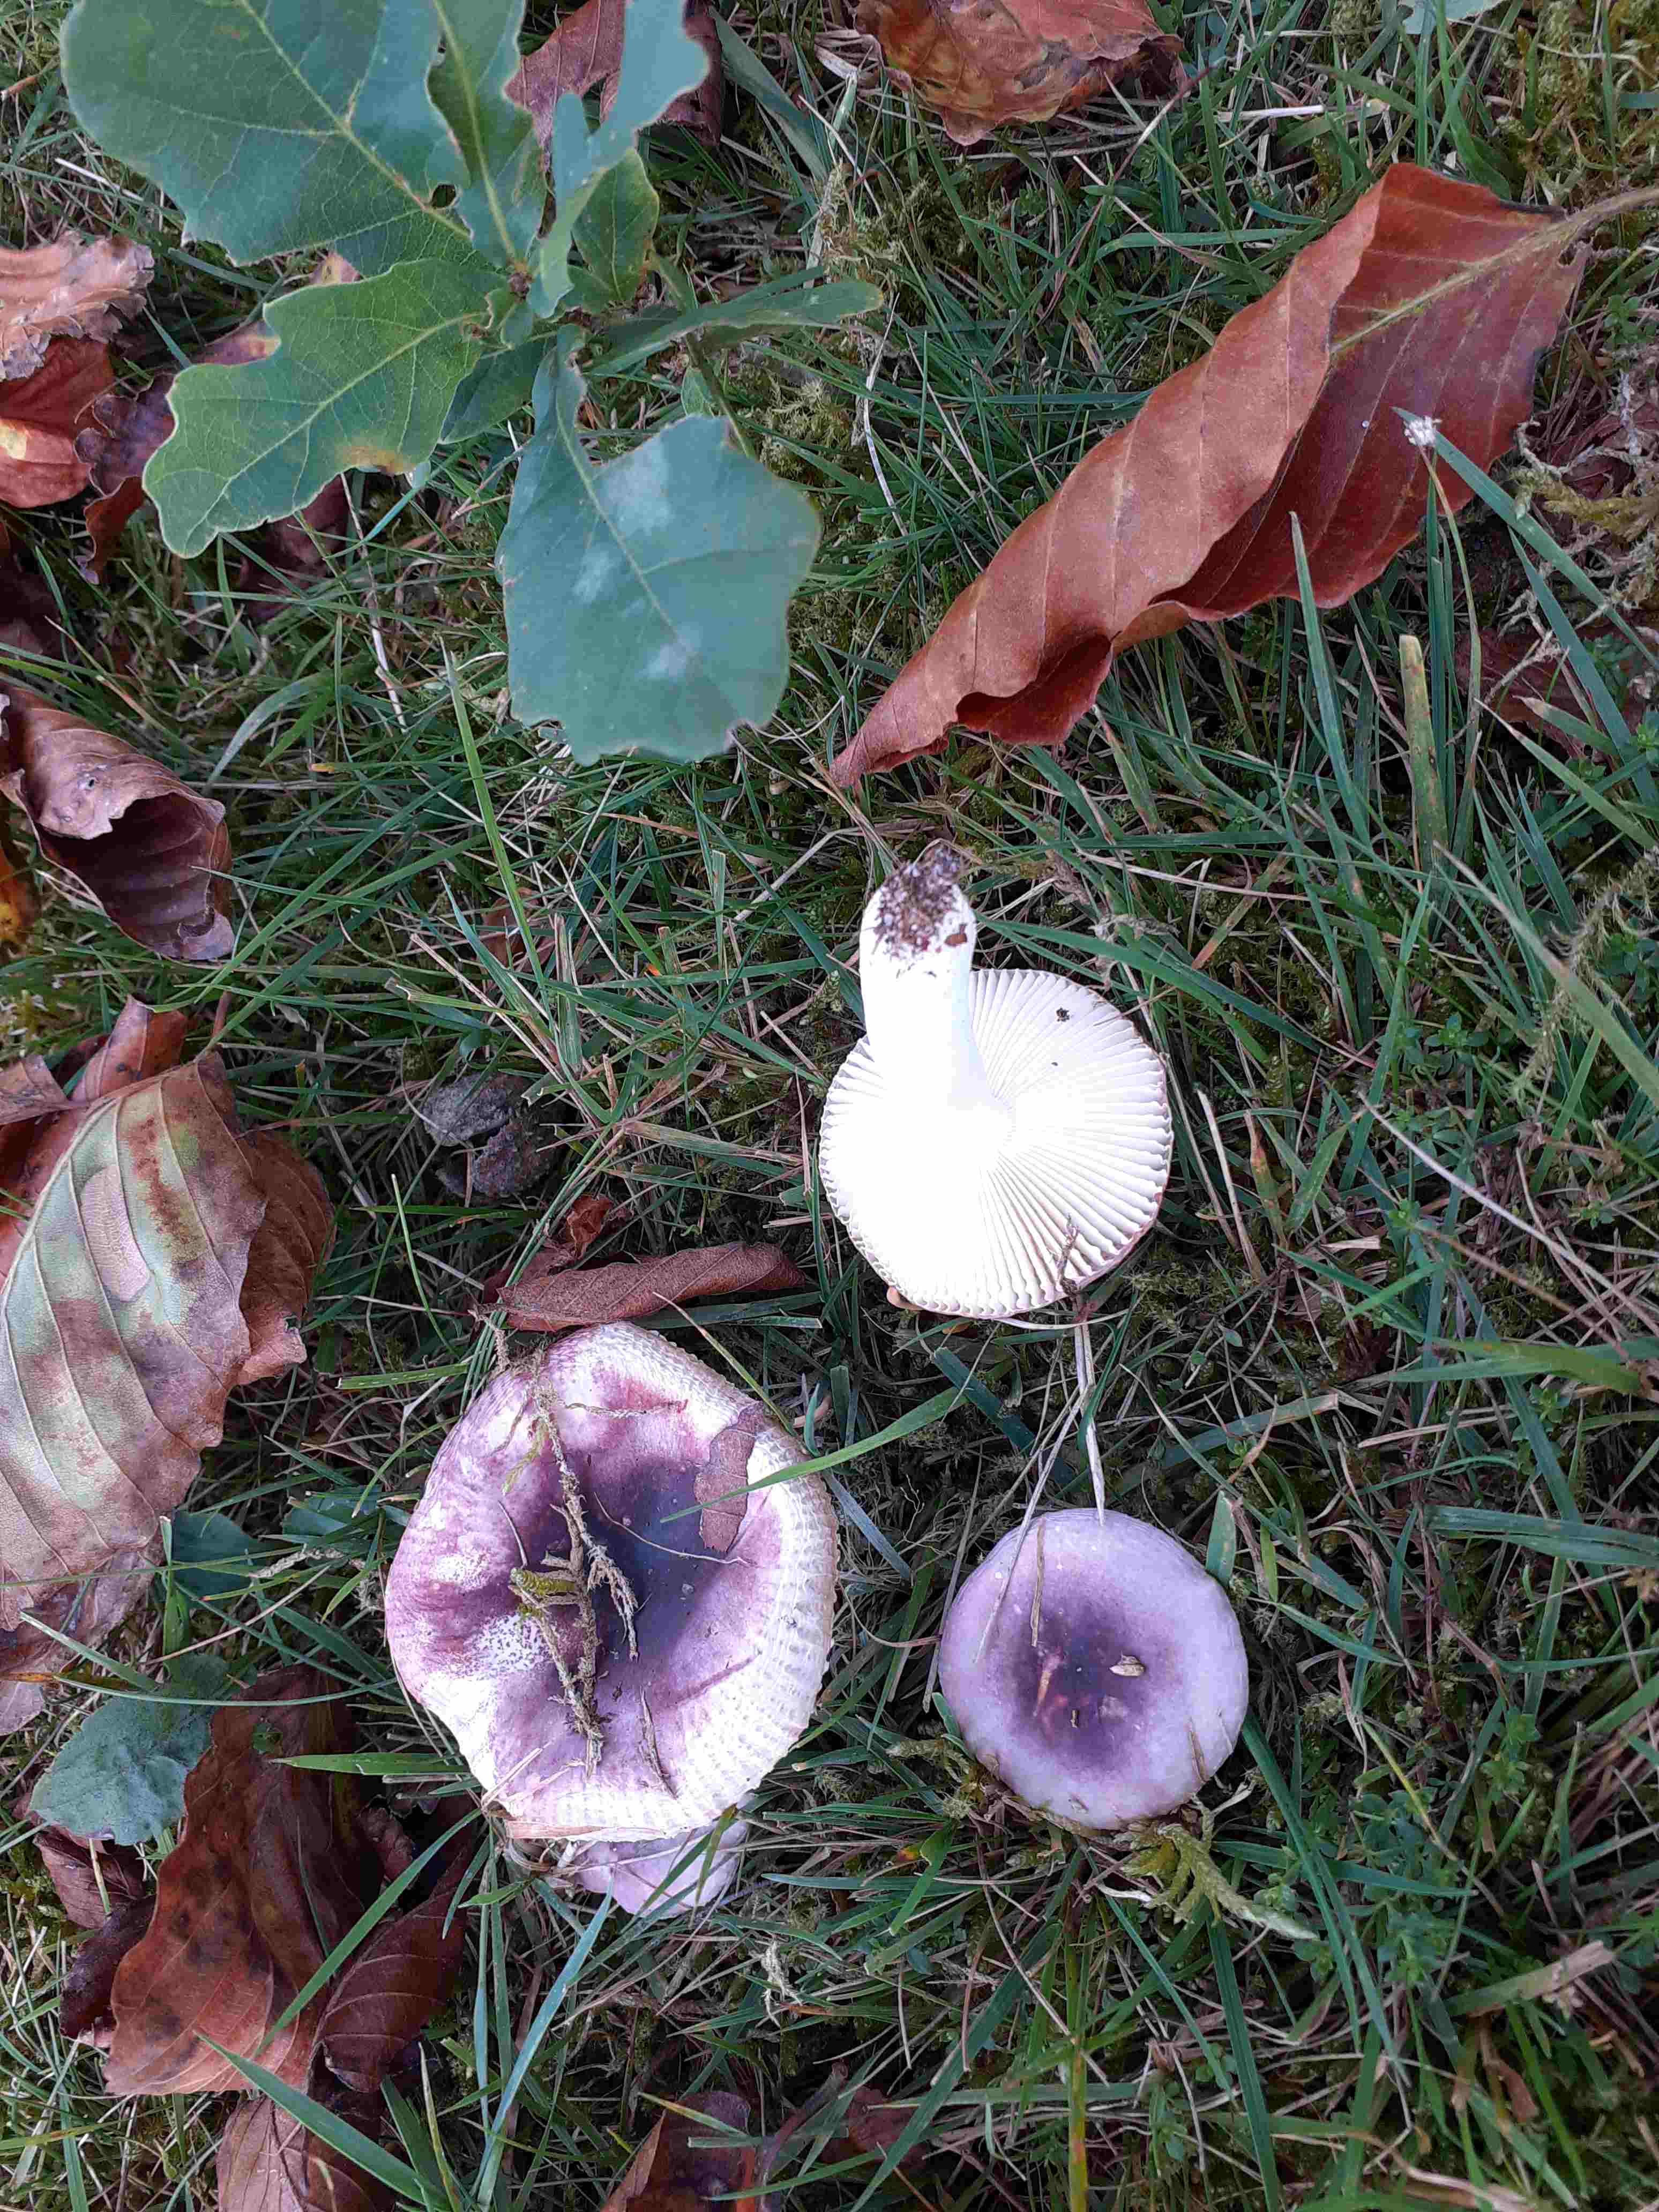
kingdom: Fungi
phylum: Basidiomycota
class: Agaricomycetes
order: Russulales
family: Russulaceae
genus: Russula
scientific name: Russula fragilis
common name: savbladet skørhat
